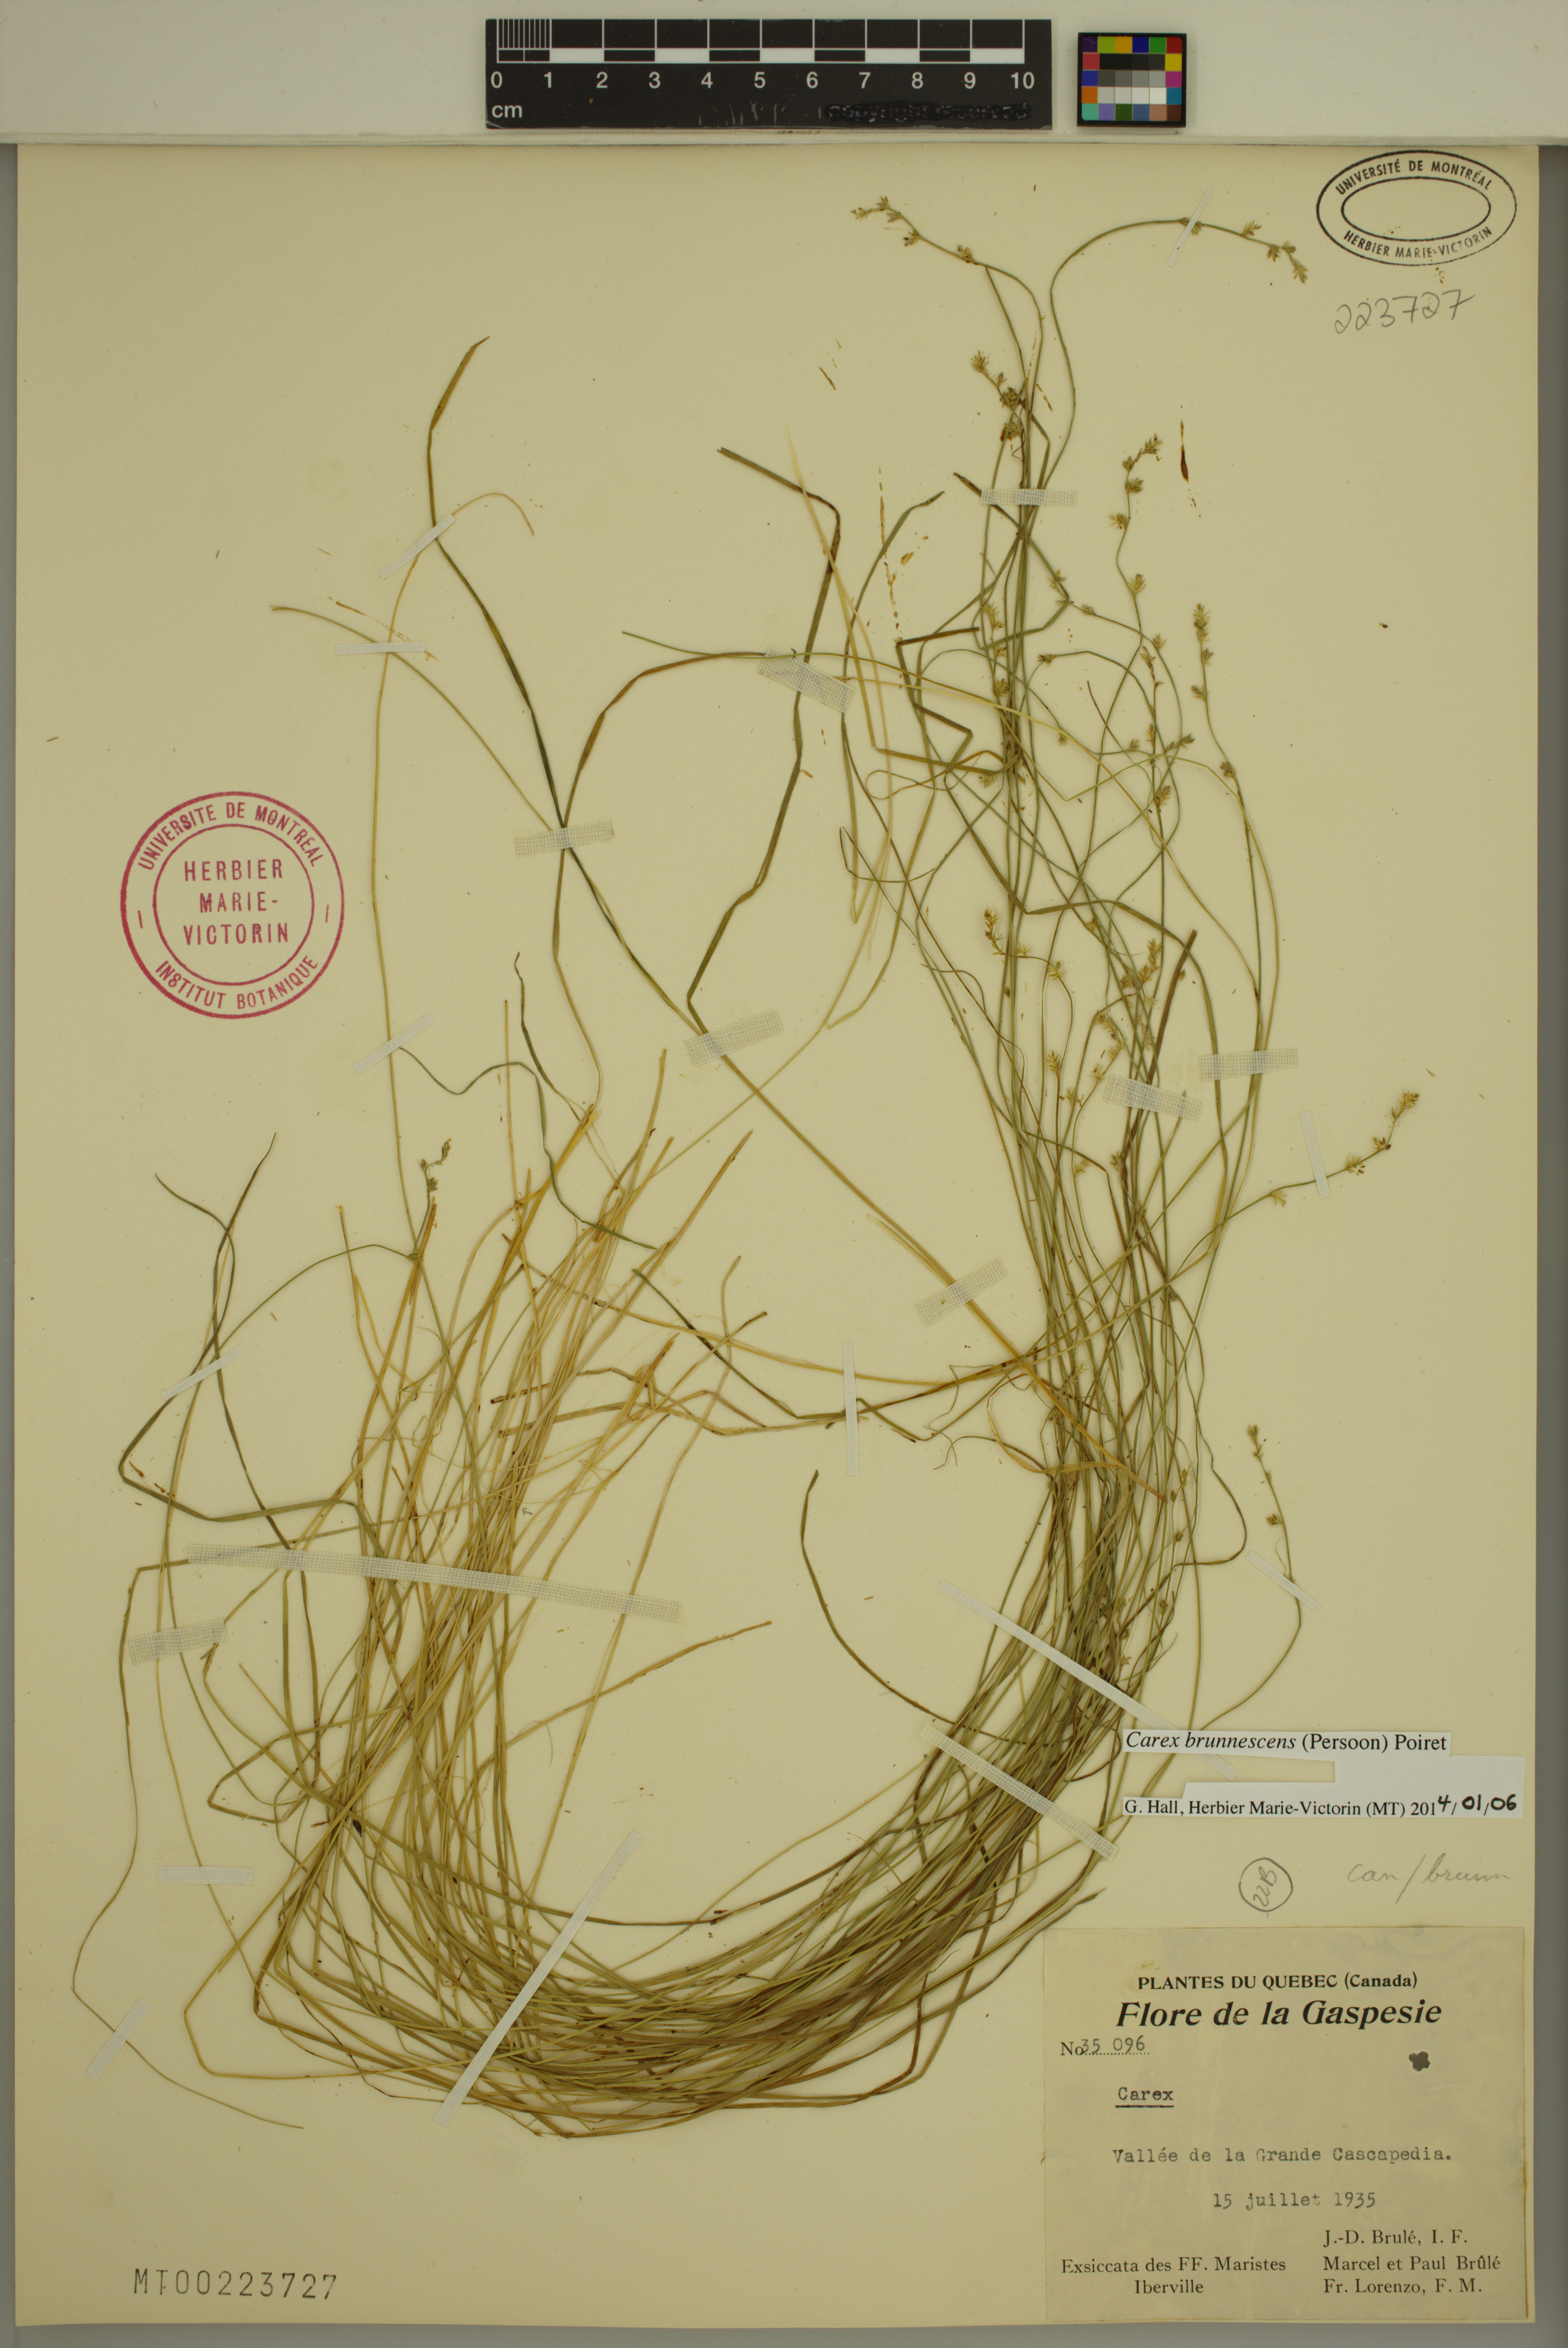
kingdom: Plantae
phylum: Tracheophyta
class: Liliopsida
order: Poales
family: Cyperaceae
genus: Carex
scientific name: Carex brunnescens
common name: Brown sedge
